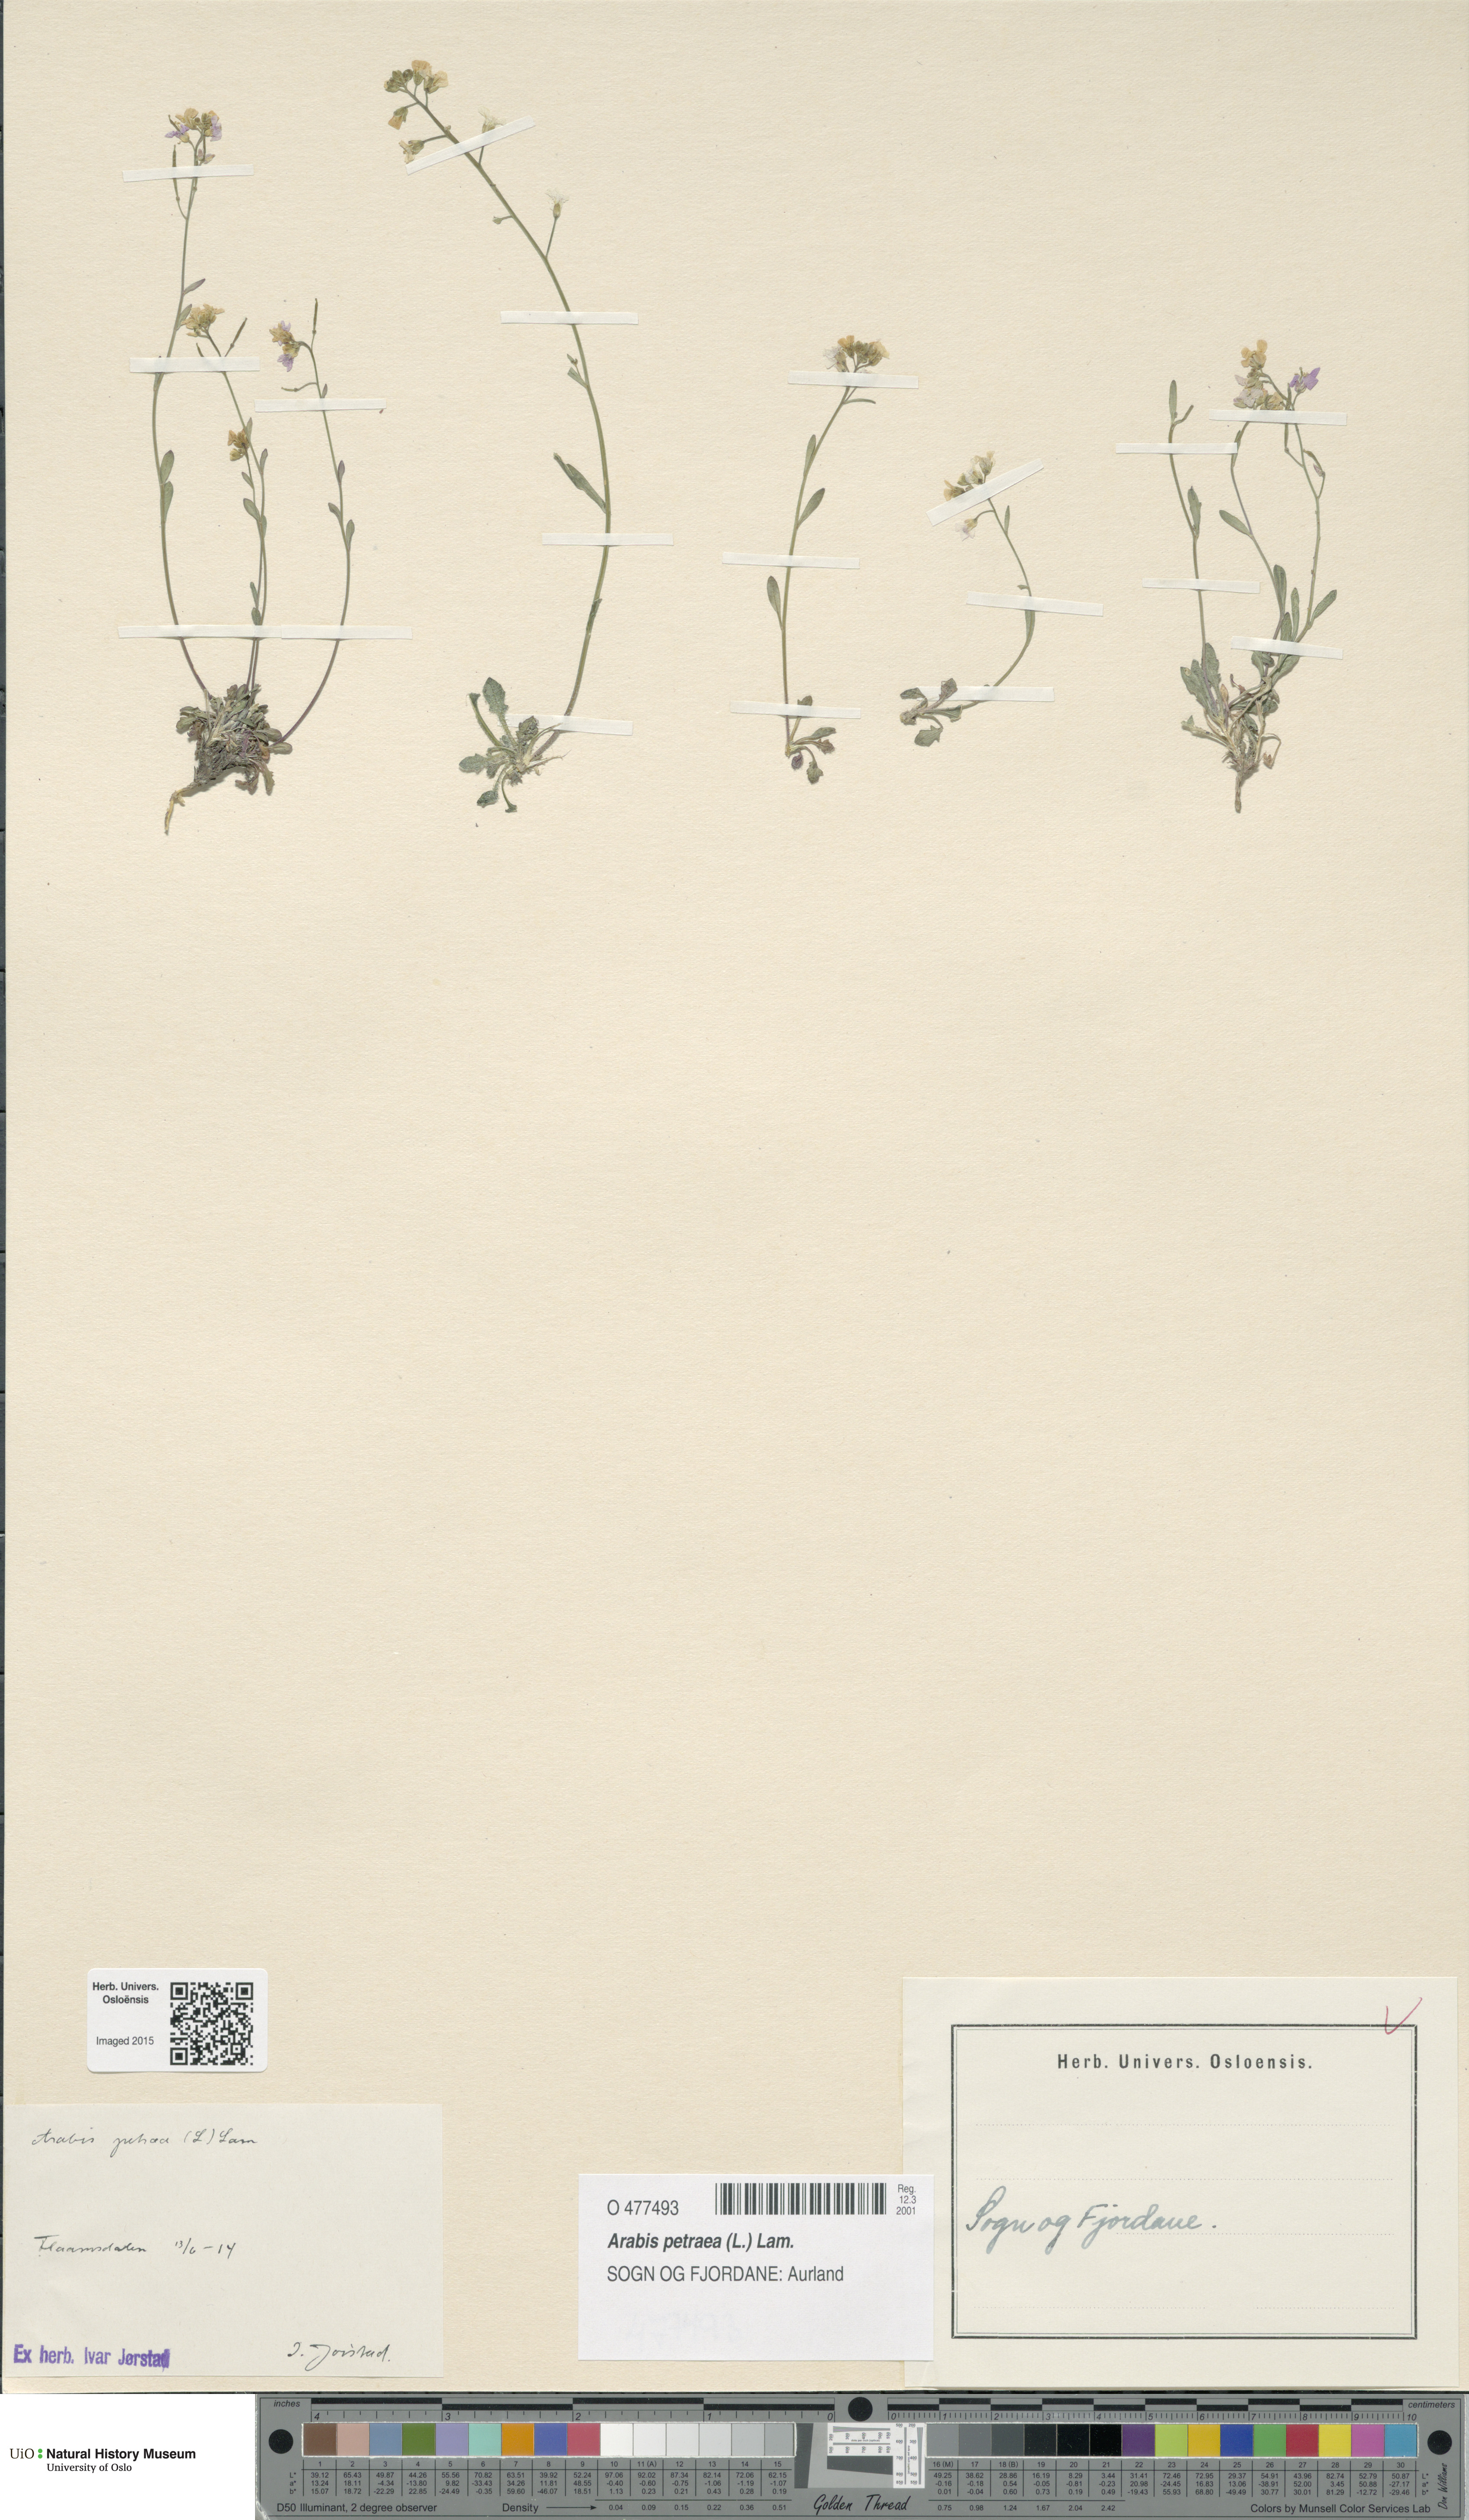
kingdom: Plantae
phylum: Tracheophyta
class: Magnoliopsida
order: Brassicales
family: Brassicaceae
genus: Arabidopsis
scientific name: Arabidopsis petraea
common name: Northern rock-cress
